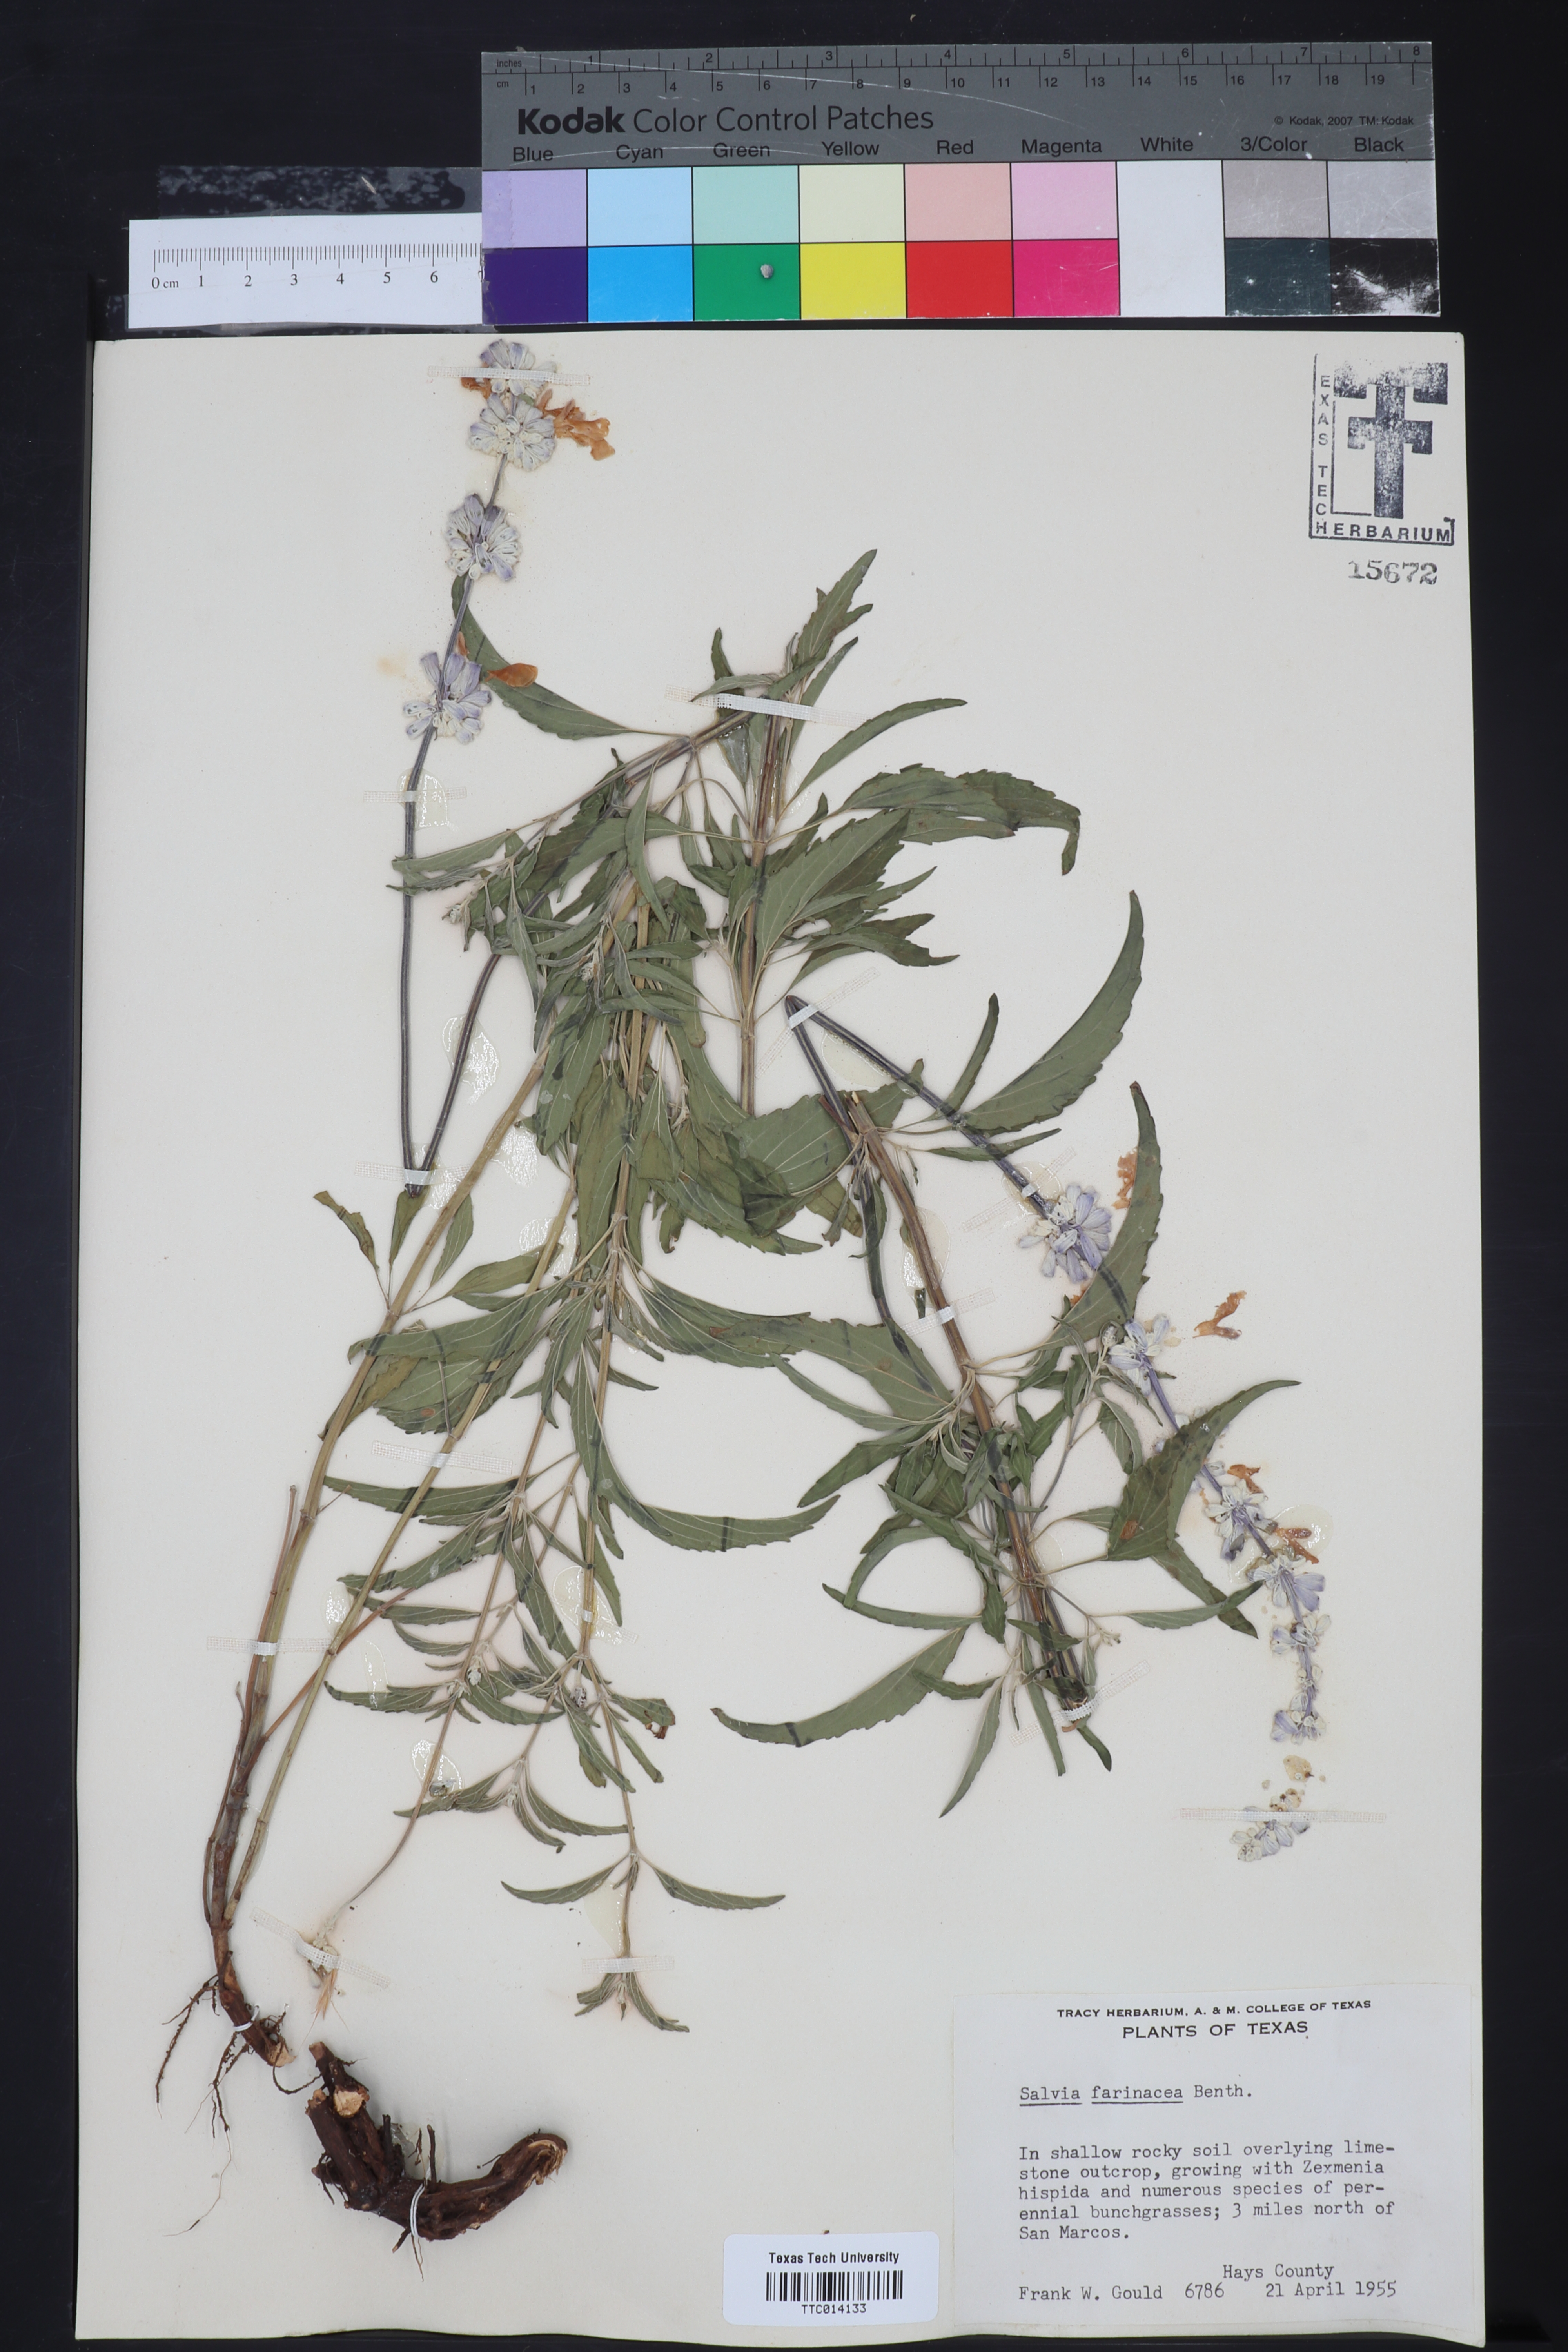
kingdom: Plantae
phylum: Tracheophyta
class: Magnoliopsida
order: Lamiales
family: Lamiaceae
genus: Salvia
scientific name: Salvia farinacea
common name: Mealy sage
